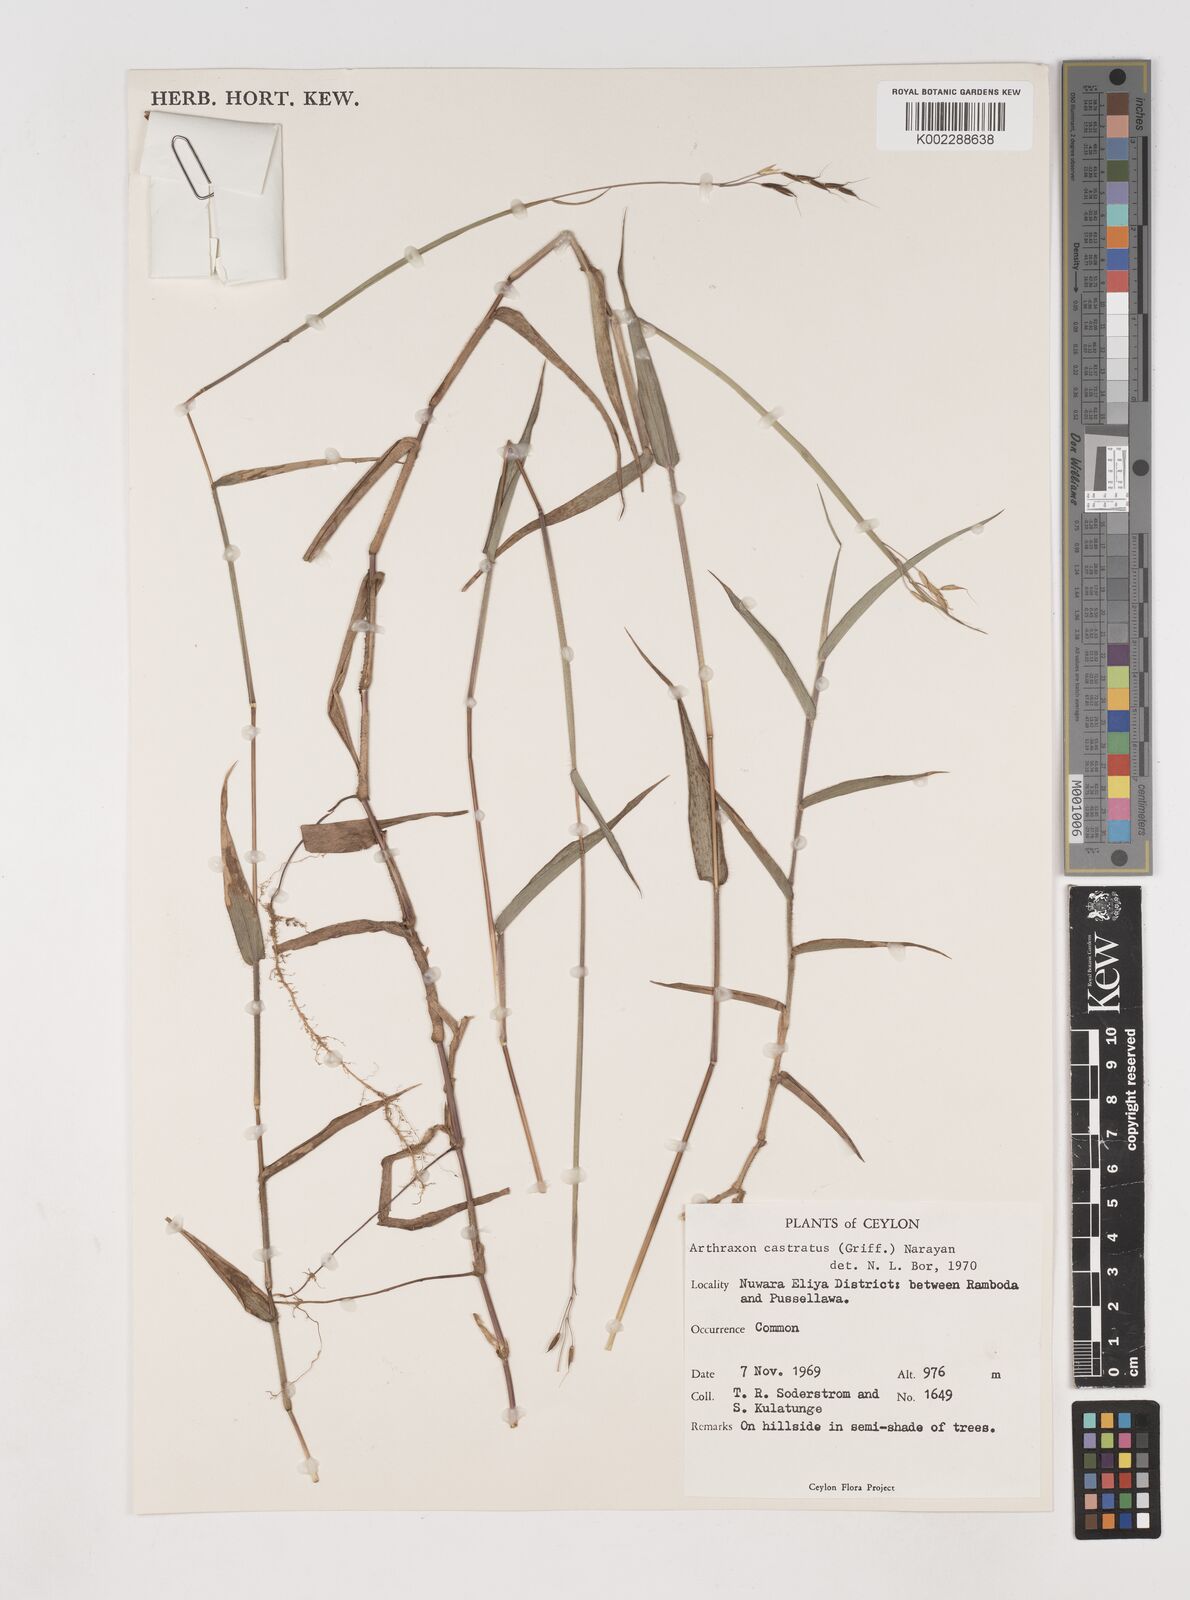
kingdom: Plantae
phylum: Tracheophyta
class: Liliopsida
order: Poales
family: Poaceae
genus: Arthraxon
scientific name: Arthraxon castratus
